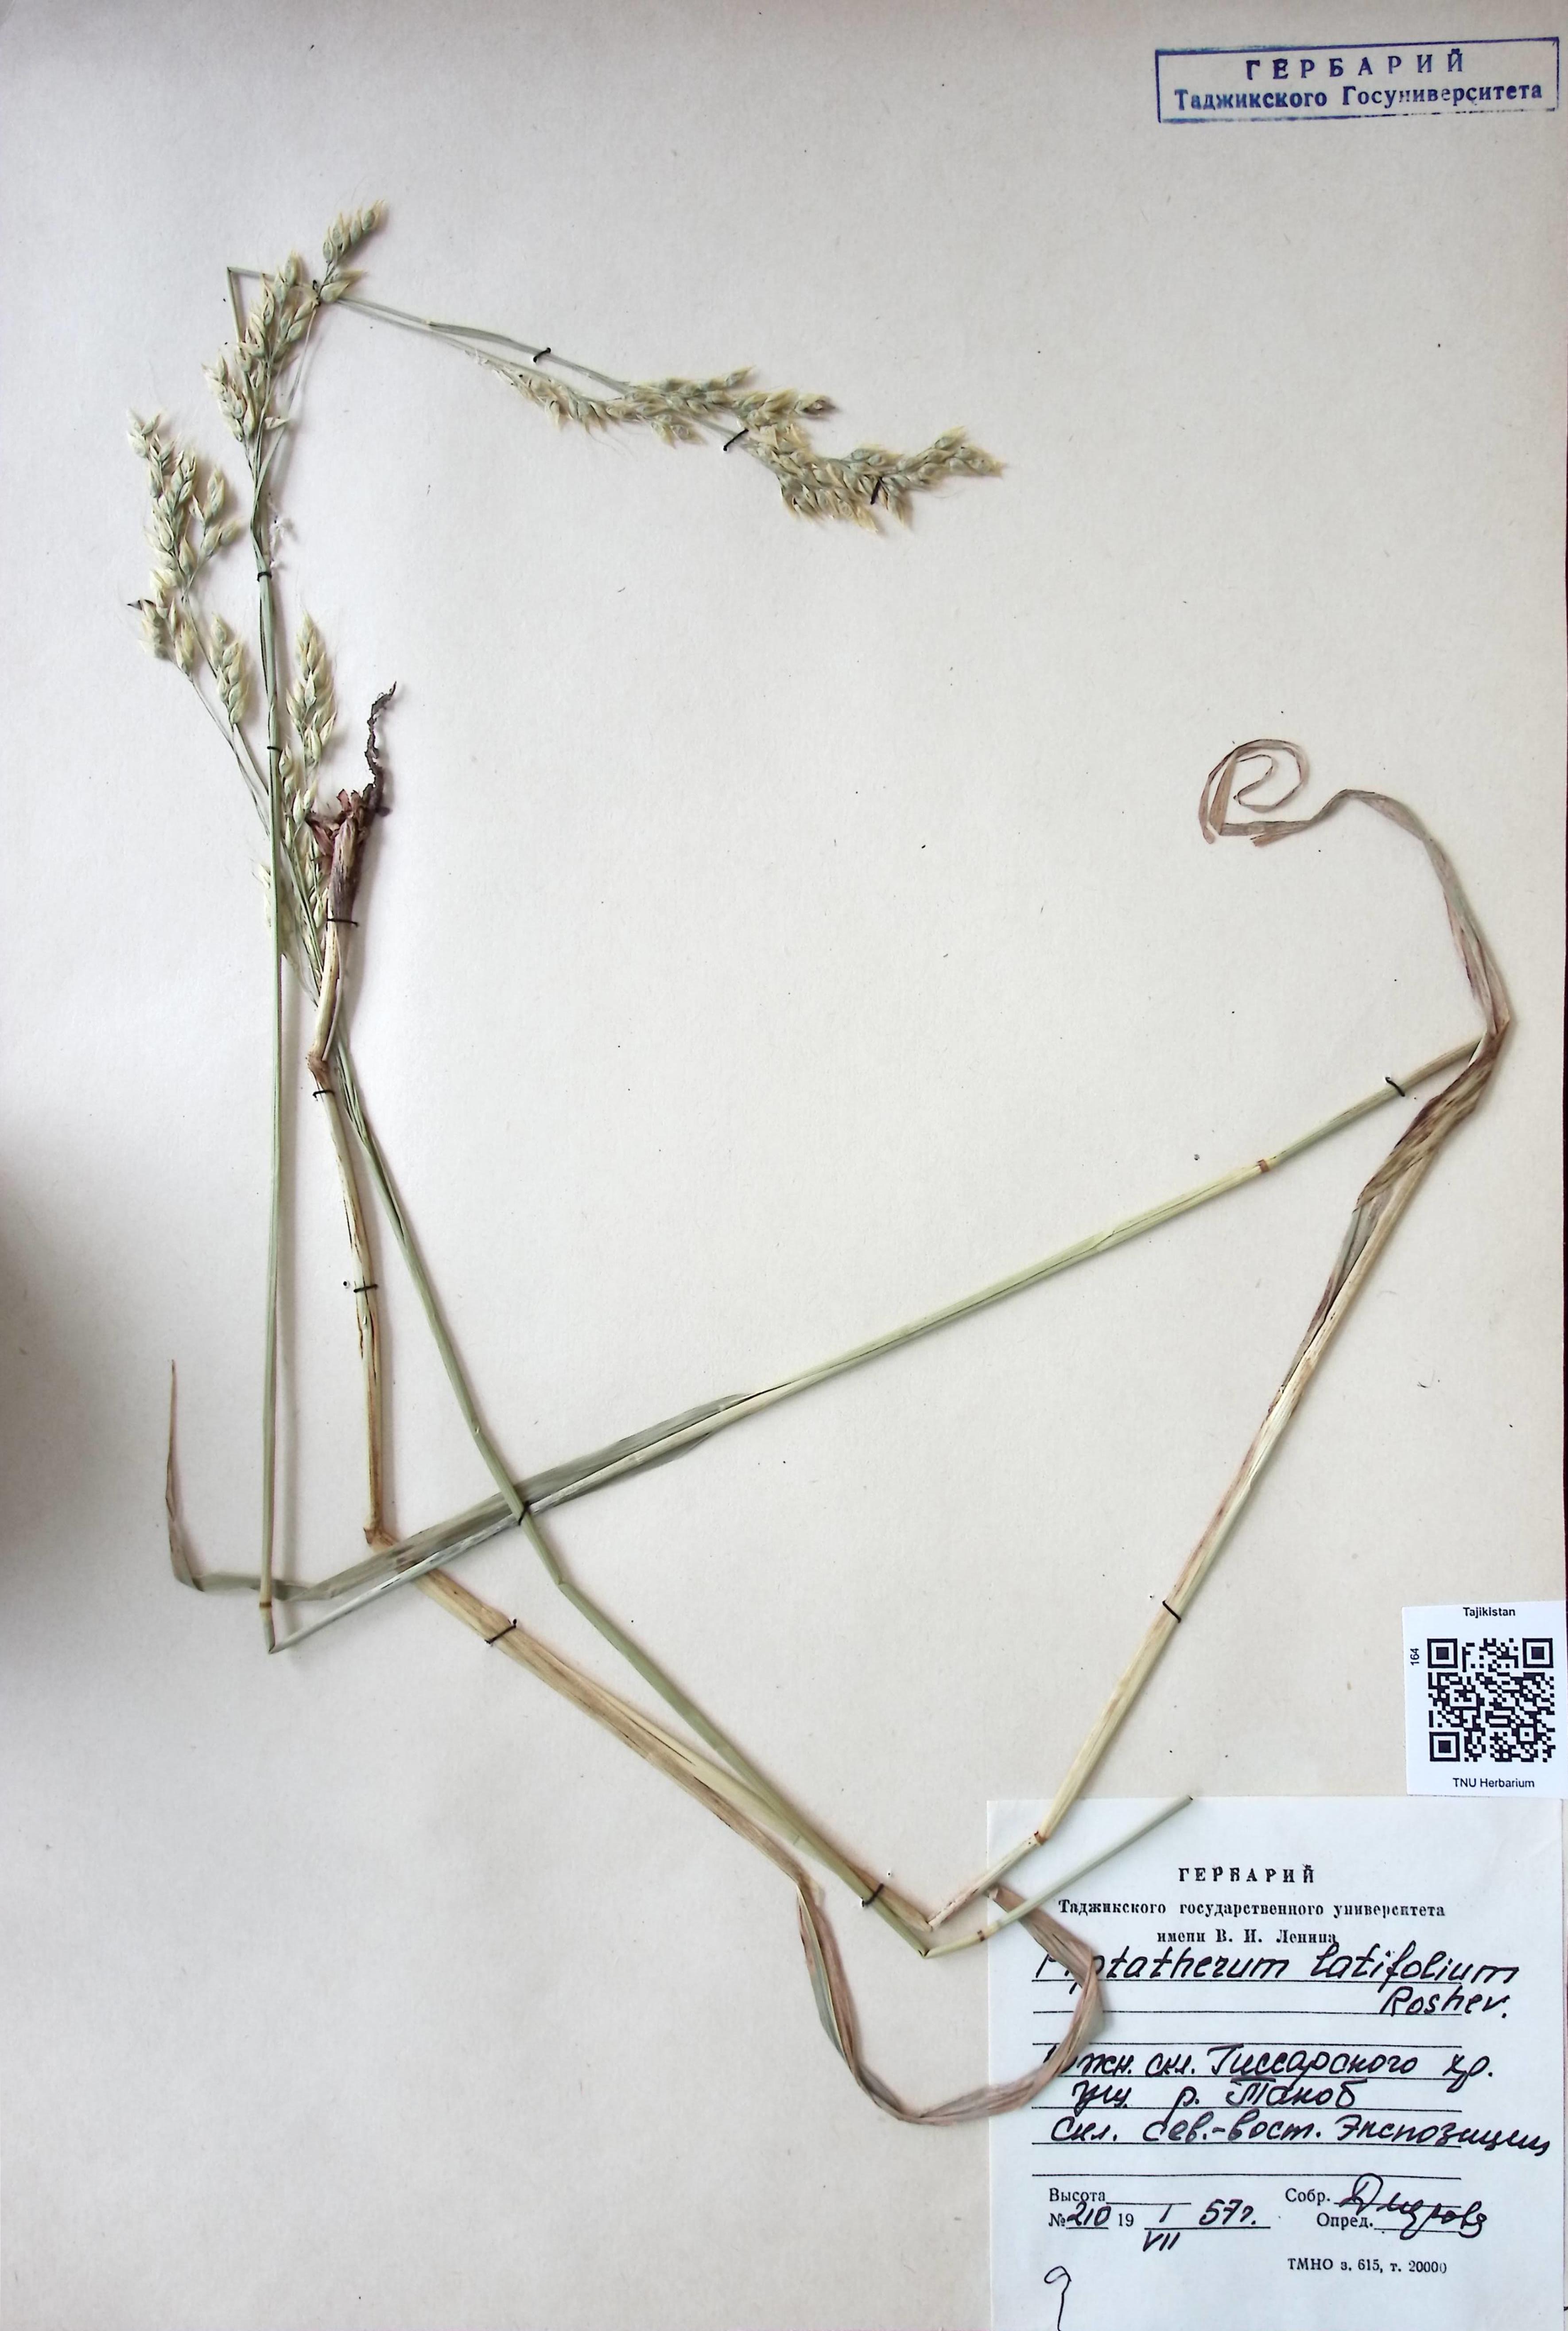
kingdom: Plantae
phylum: Tracheophyta
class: Liliopsida
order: Poales
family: Poaceae
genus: Piptatherum
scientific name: Piptatherum latifolium
